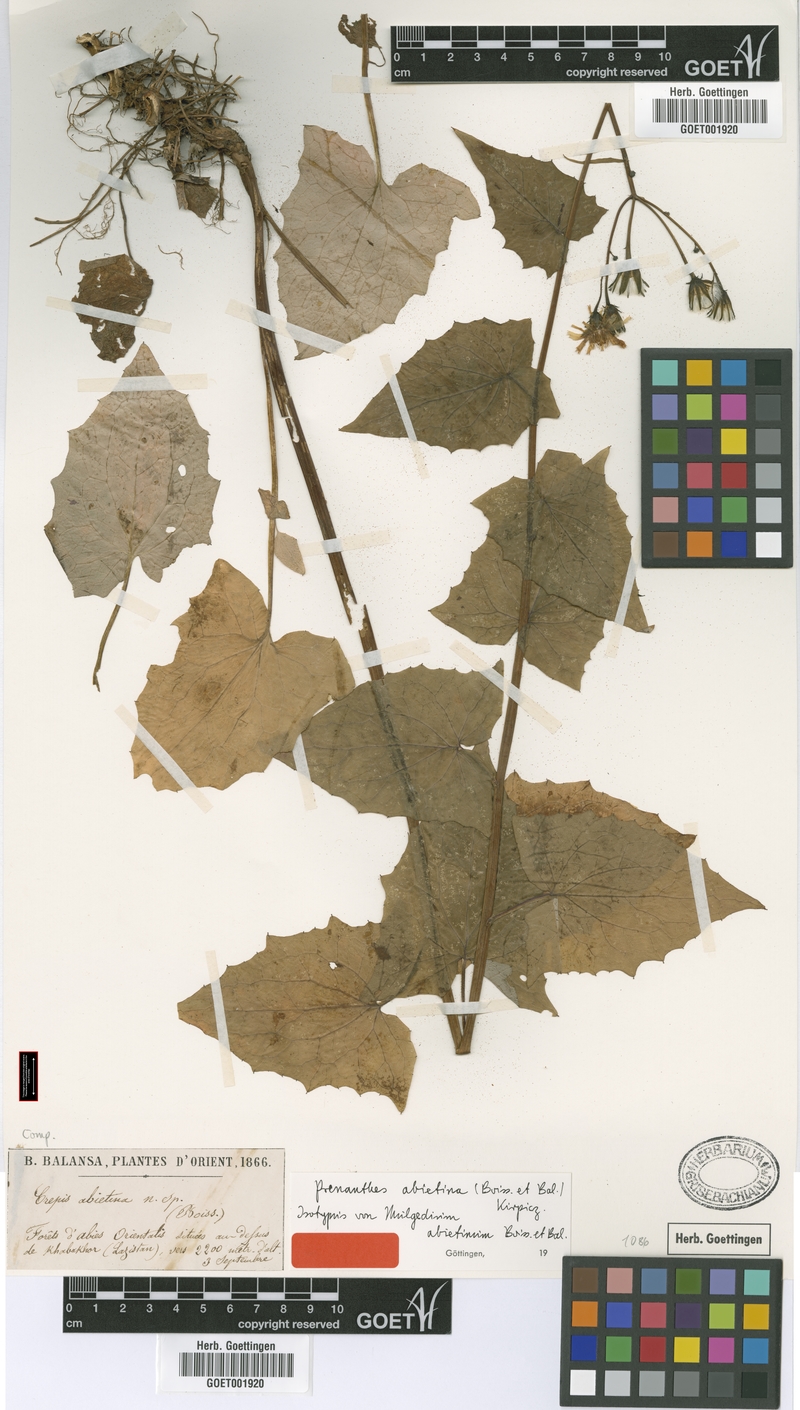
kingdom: Plantae
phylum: Tracheophyta
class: Magnoliopsida
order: Asterales
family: Asteraceae
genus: Caucasoseris
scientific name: Caucasoseris abietina
